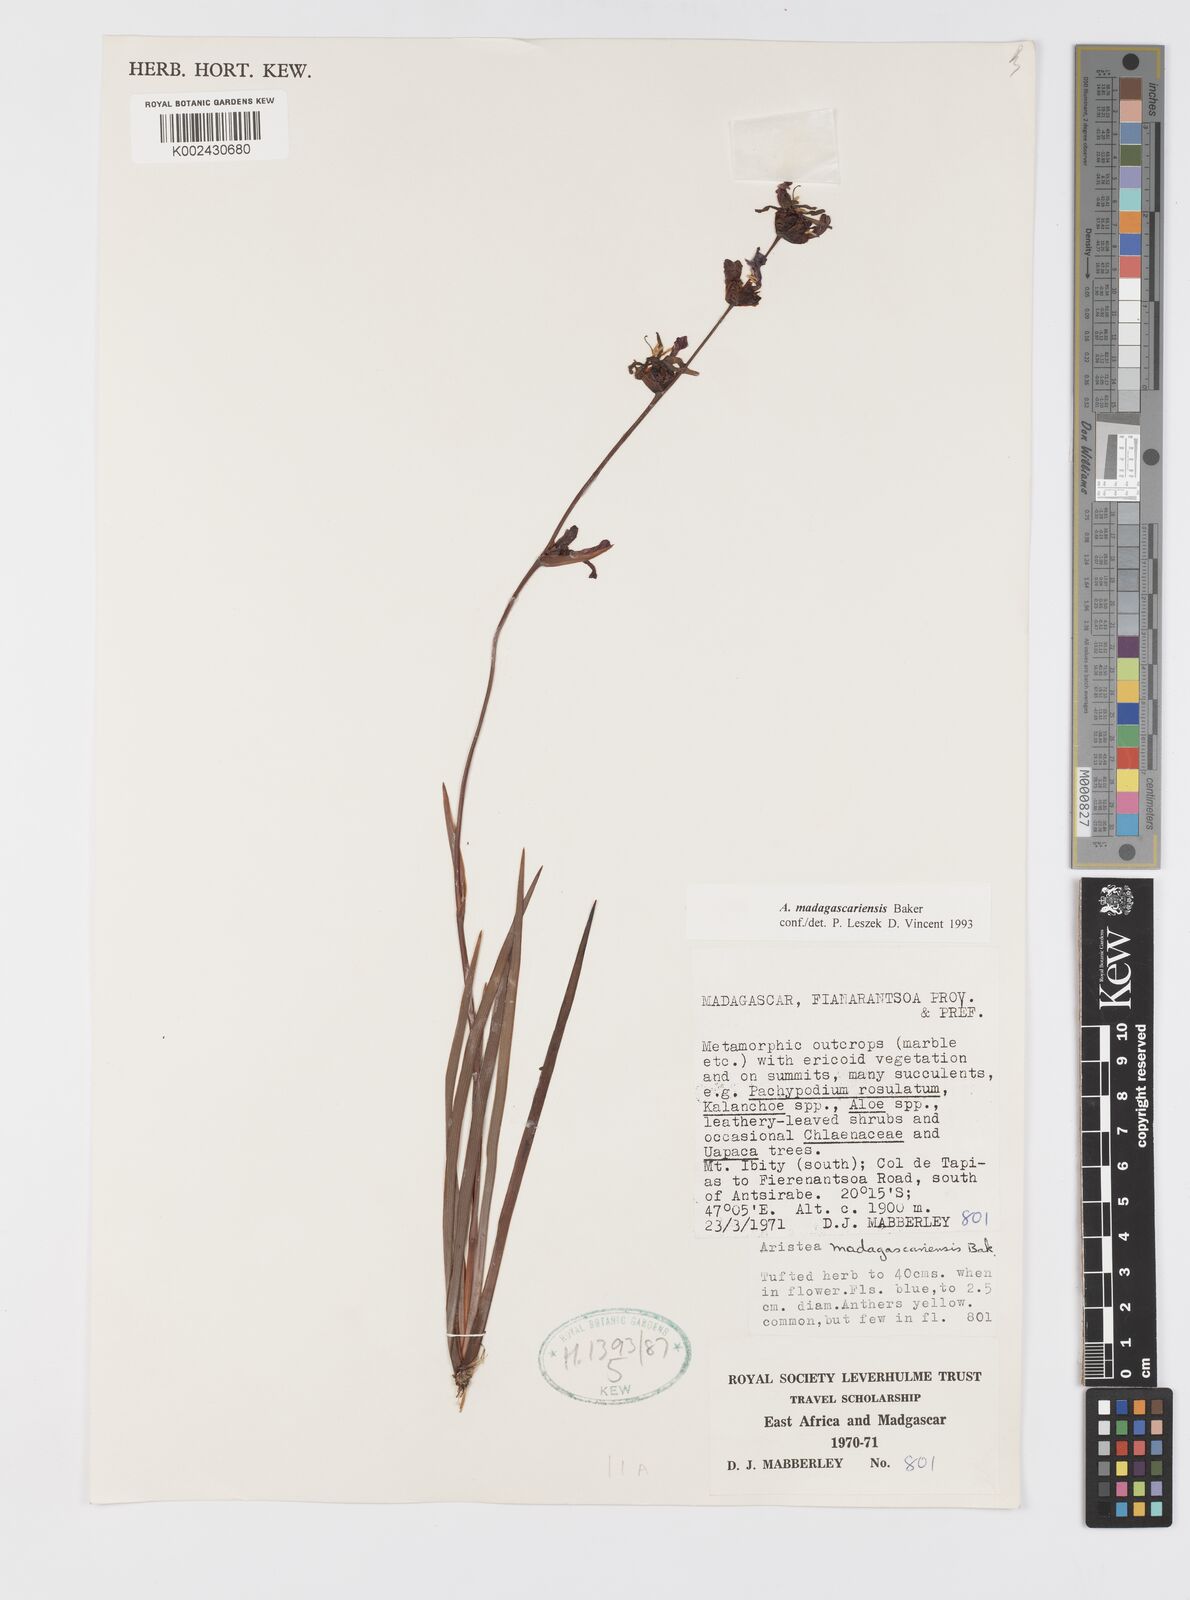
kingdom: Plantae
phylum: Tracheophyta
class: Liliopsida
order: Asparagales
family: Iridaceae
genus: Aristea
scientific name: Aristea madagascariensis
